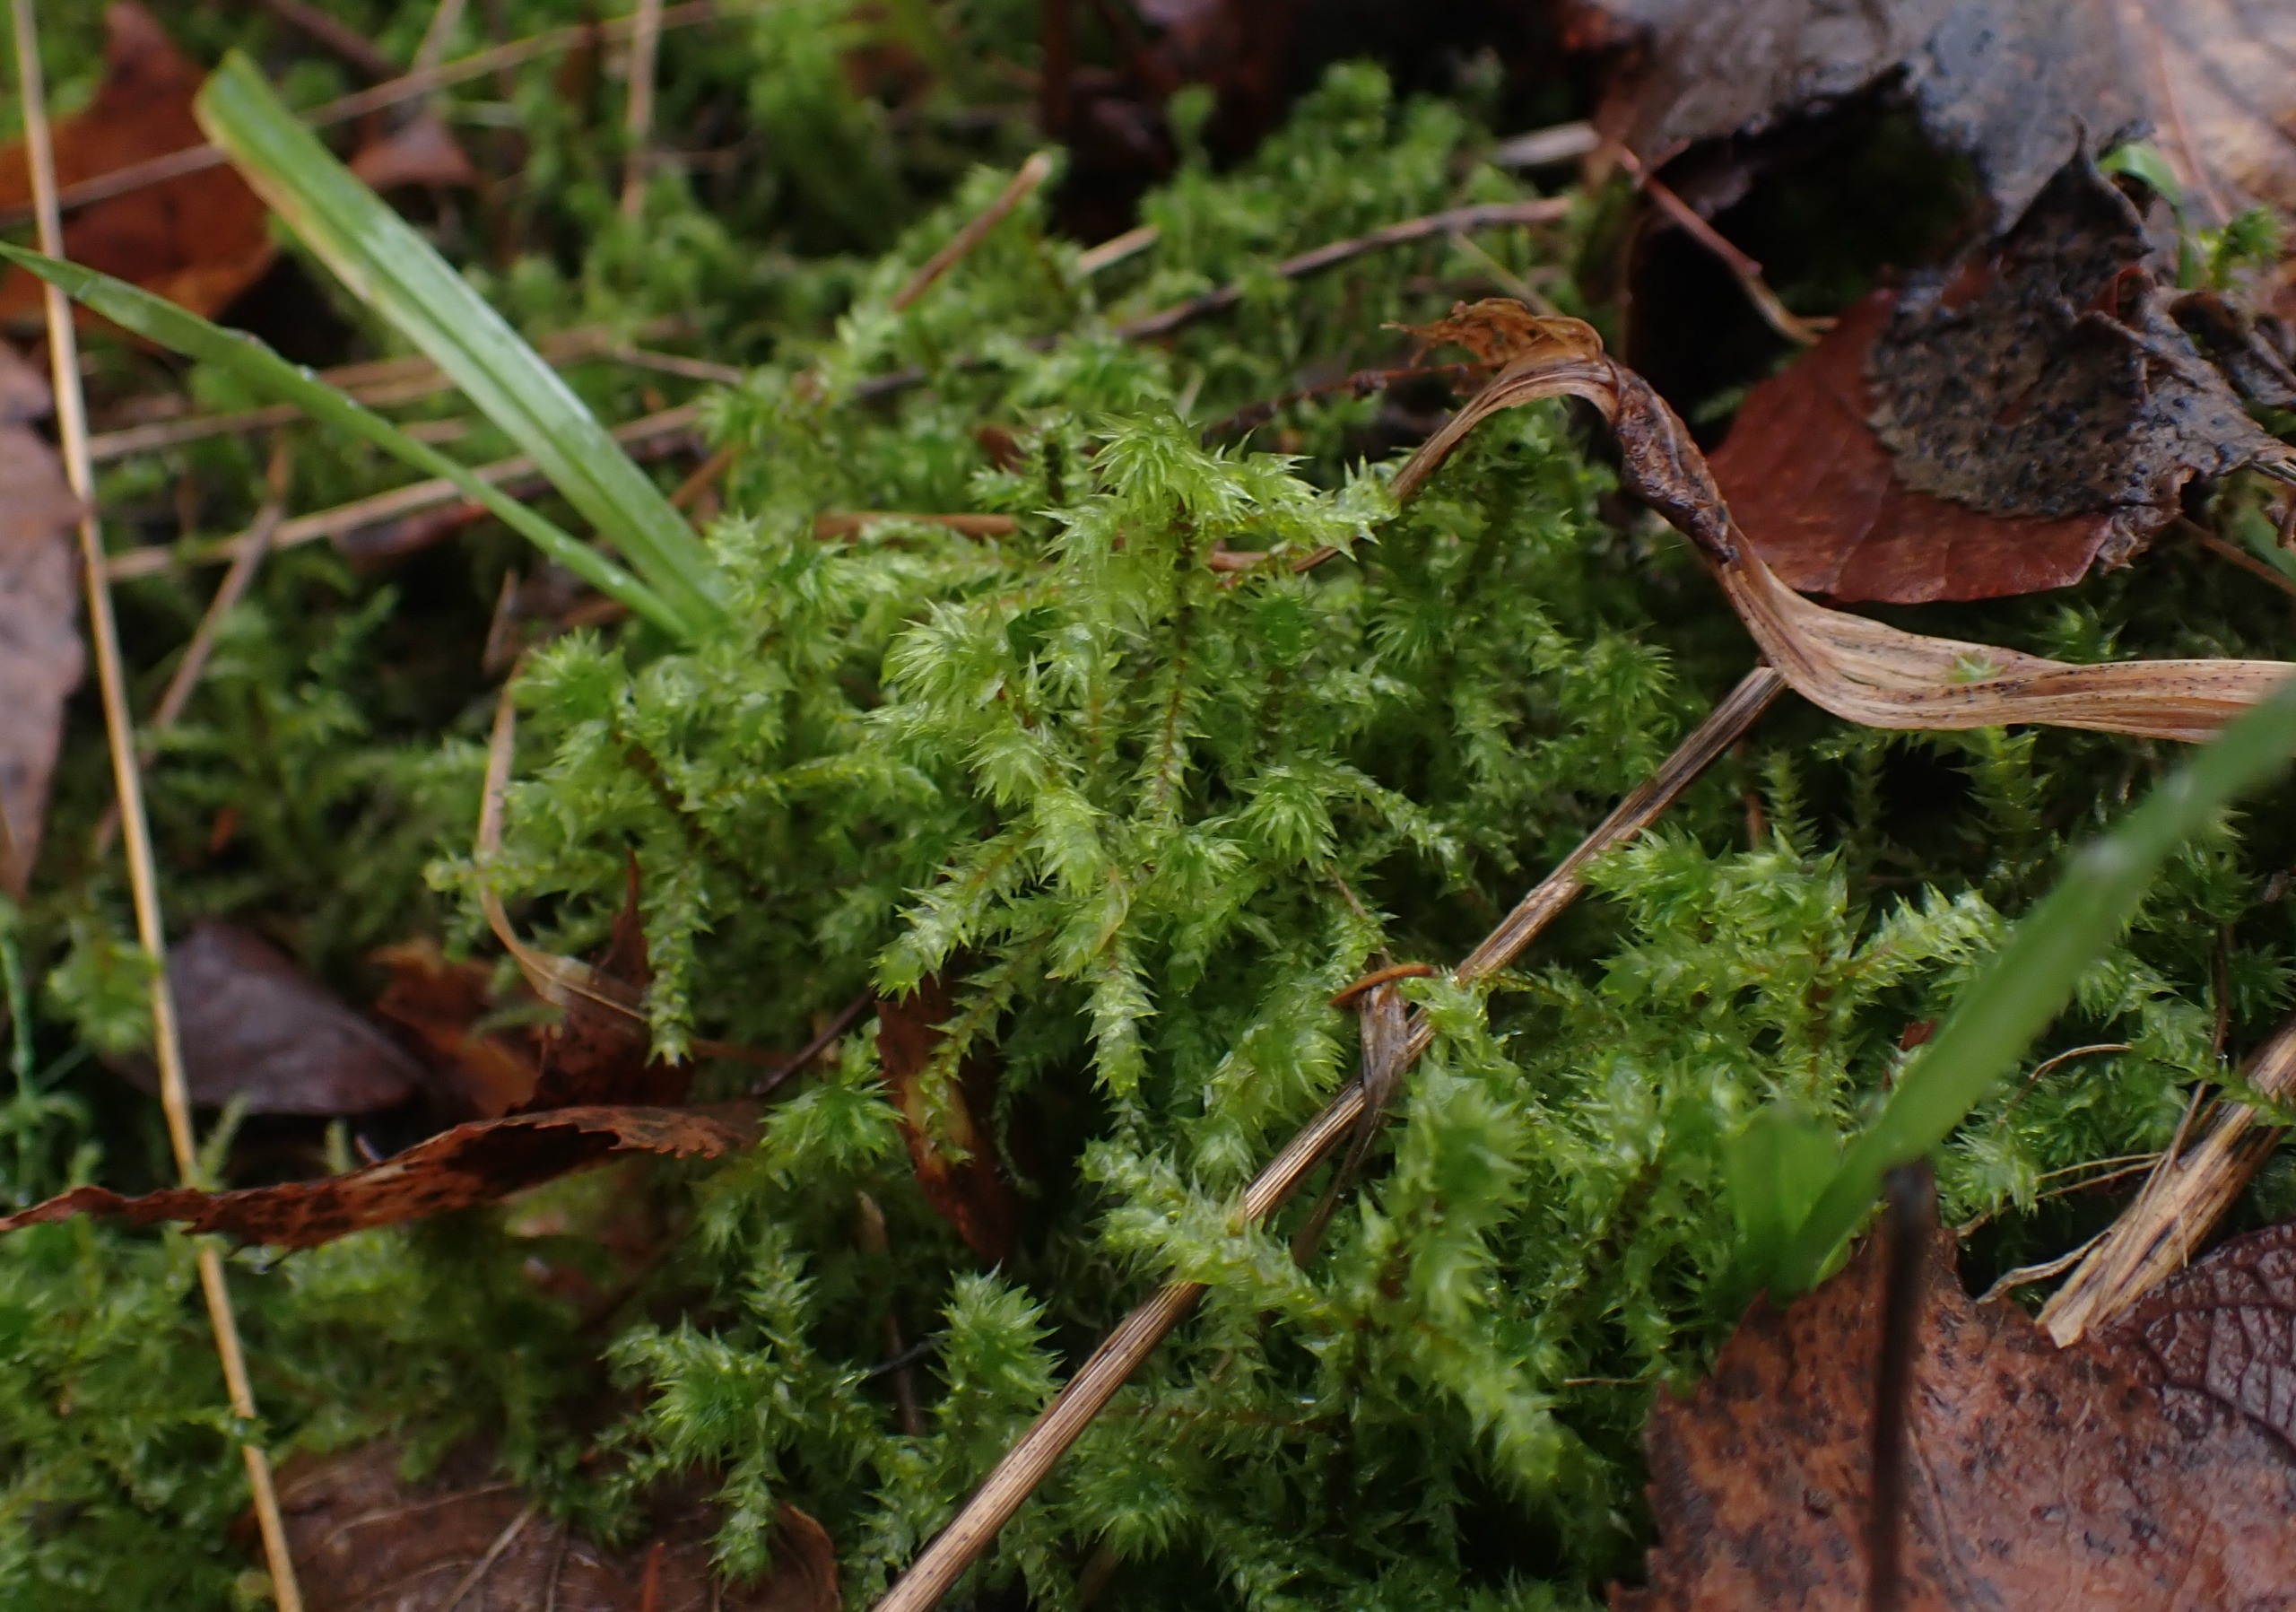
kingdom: Plantae
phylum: Bryophyta
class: Bryopsida
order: Hypnales
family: Hylocomiaceae
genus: Hylocomiadelphus
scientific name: Hylocomiadelphus triquetrus
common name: Stor kransemos
